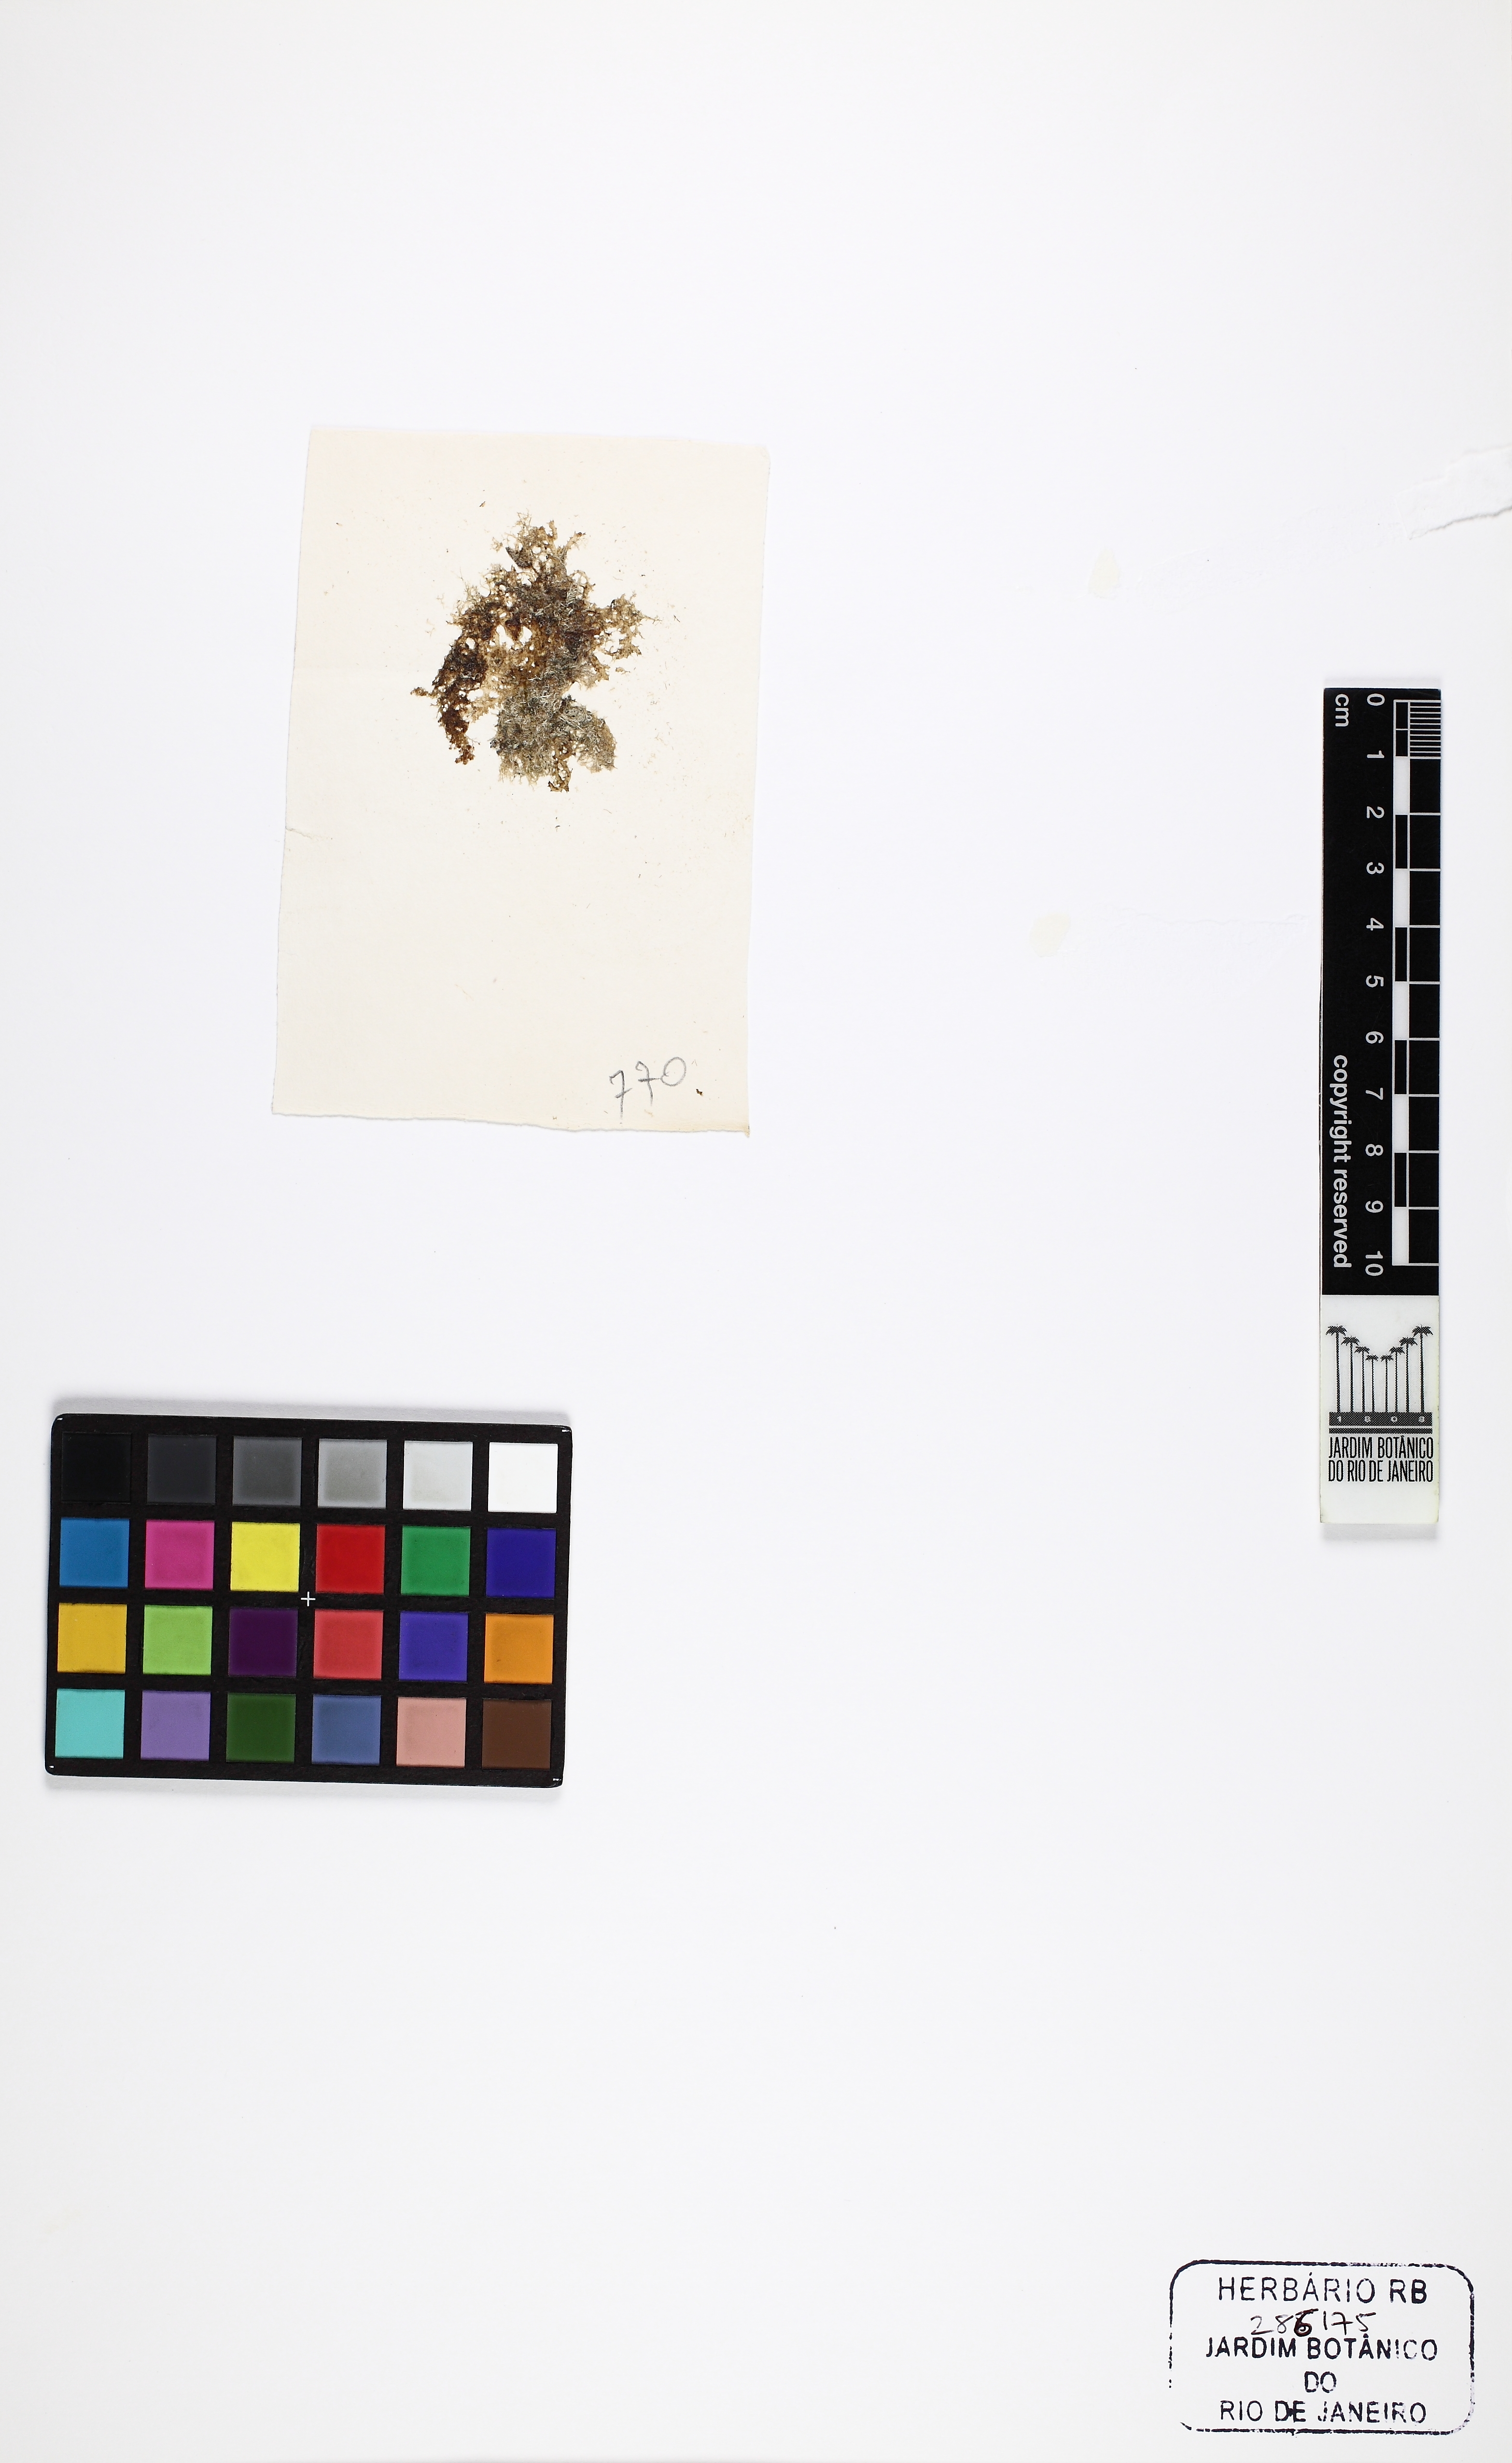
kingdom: Plantae
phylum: Rhodophyta
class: Florideophyceae
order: Ceramiales
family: Rhodomelaceae
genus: Acanthophora
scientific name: Acanthophora spicifera
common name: Red algae
